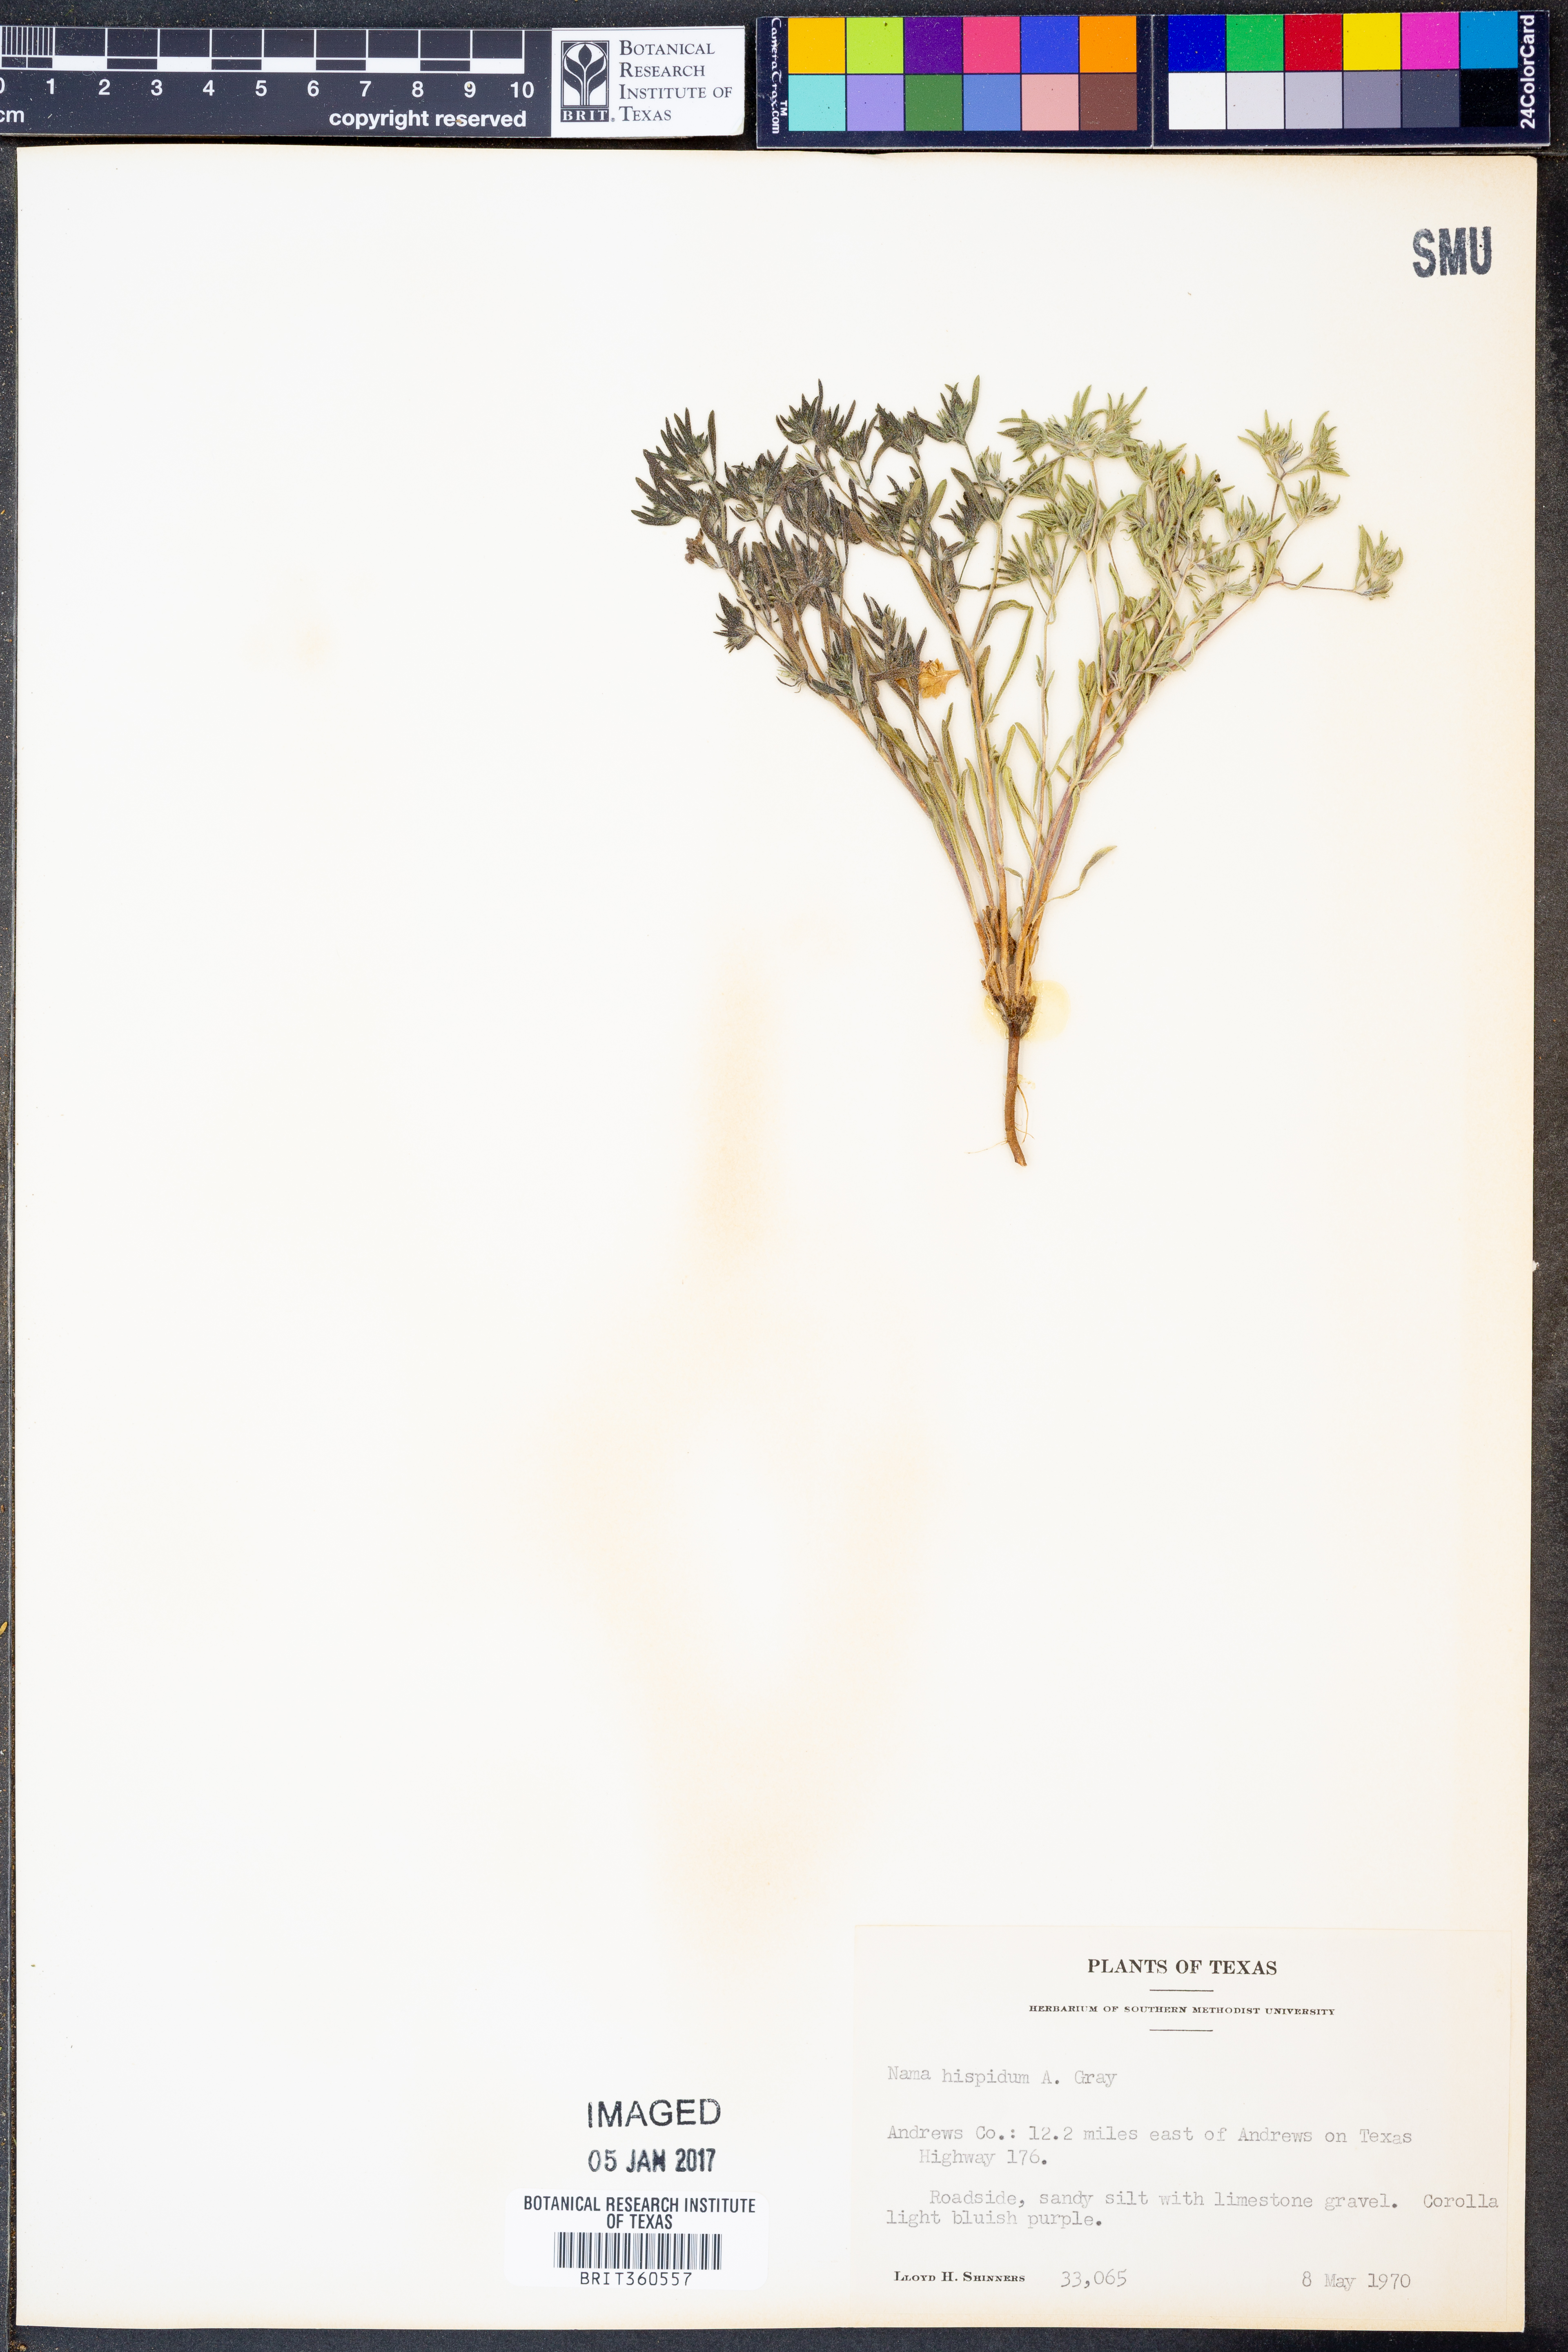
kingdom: Plantae
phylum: Tracheophyta
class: Magnoliopsida
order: Boraginales
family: Namaceae
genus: Nama
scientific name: Nama hispida
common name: Bristly nama
